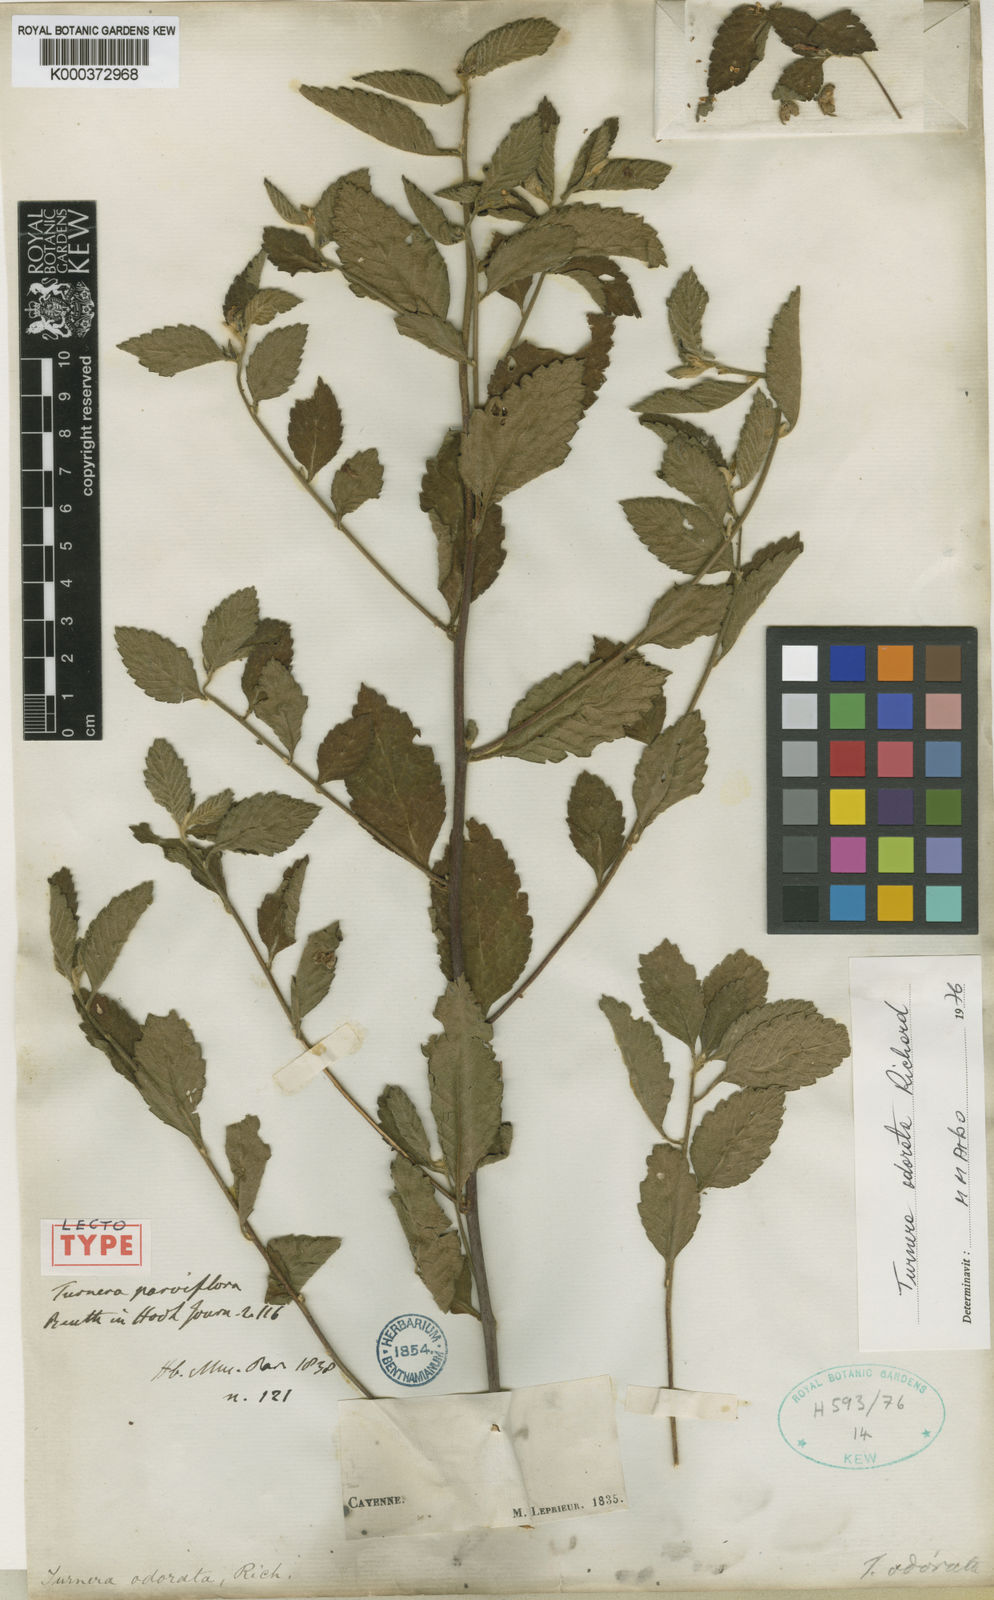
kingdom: Plantae
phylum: Tracheophyta
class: Magnoliopsida
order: Malpighiales
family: Turneraceae
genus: Turnera
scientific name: Turnera odorata
